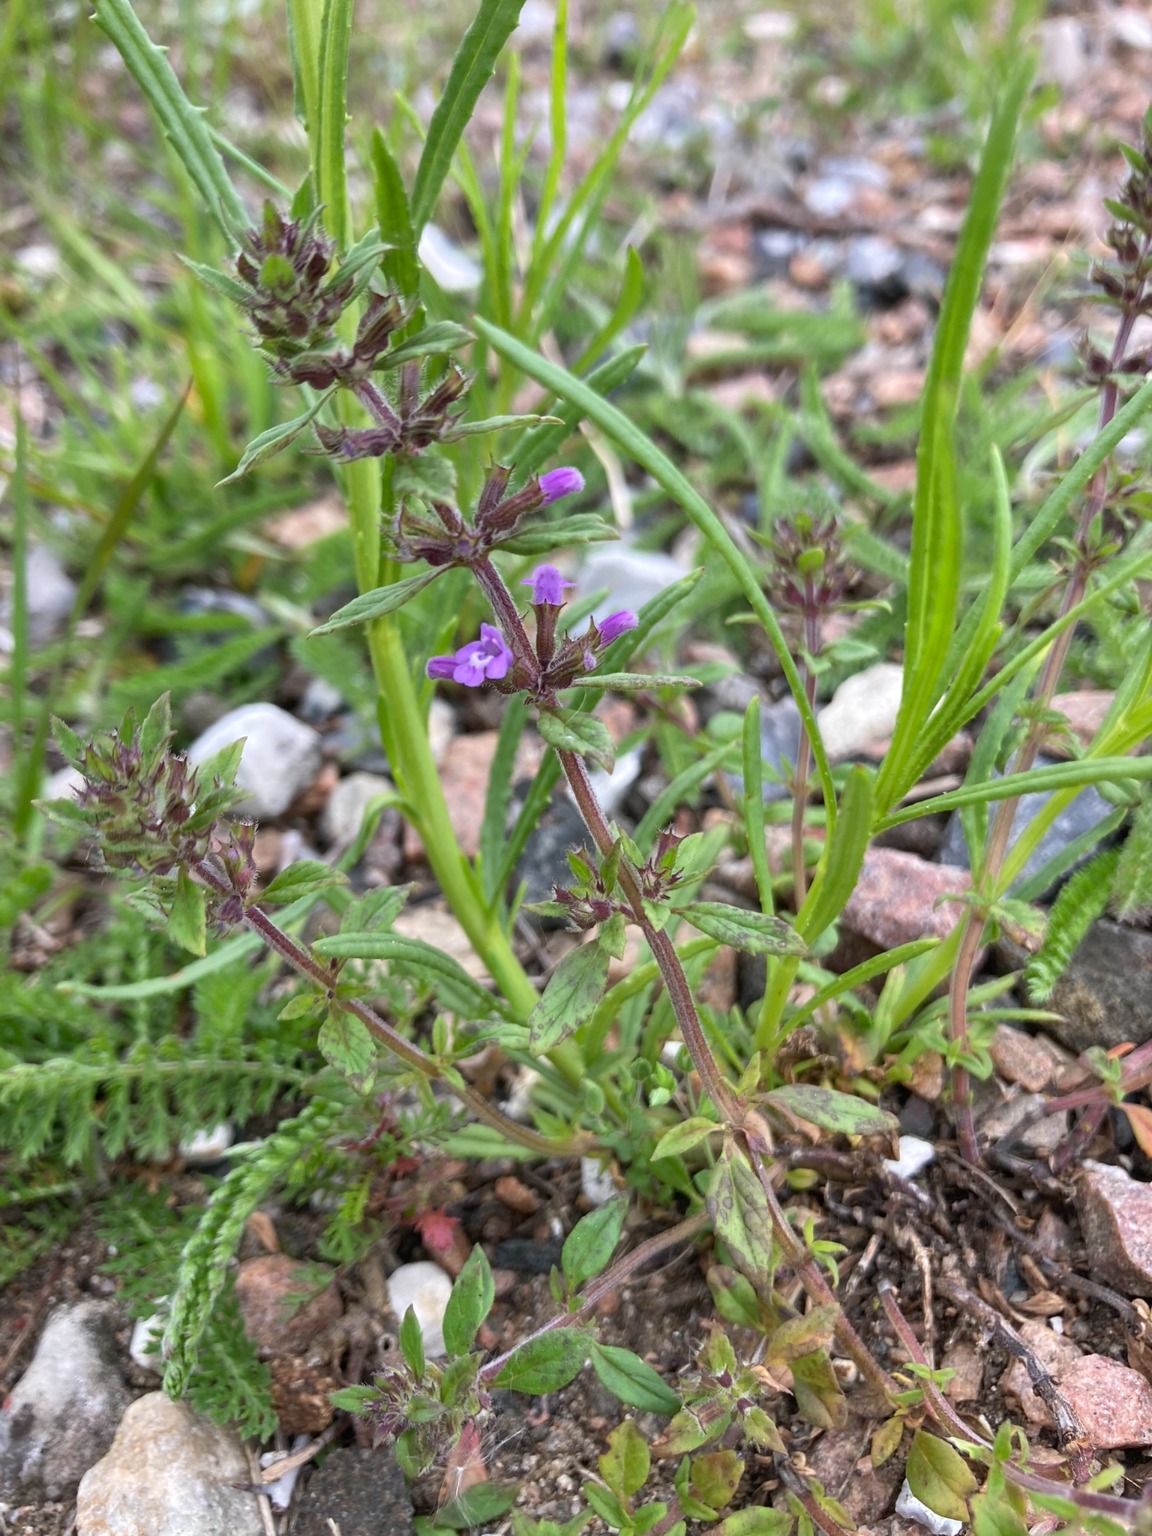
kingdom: Plantae
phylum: Tracheophyta
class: Magnoliopsida
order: Lamiales
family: Lamiaceae
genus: Clinopodium
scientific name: Clinopodium acinos
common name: Voldtimian
